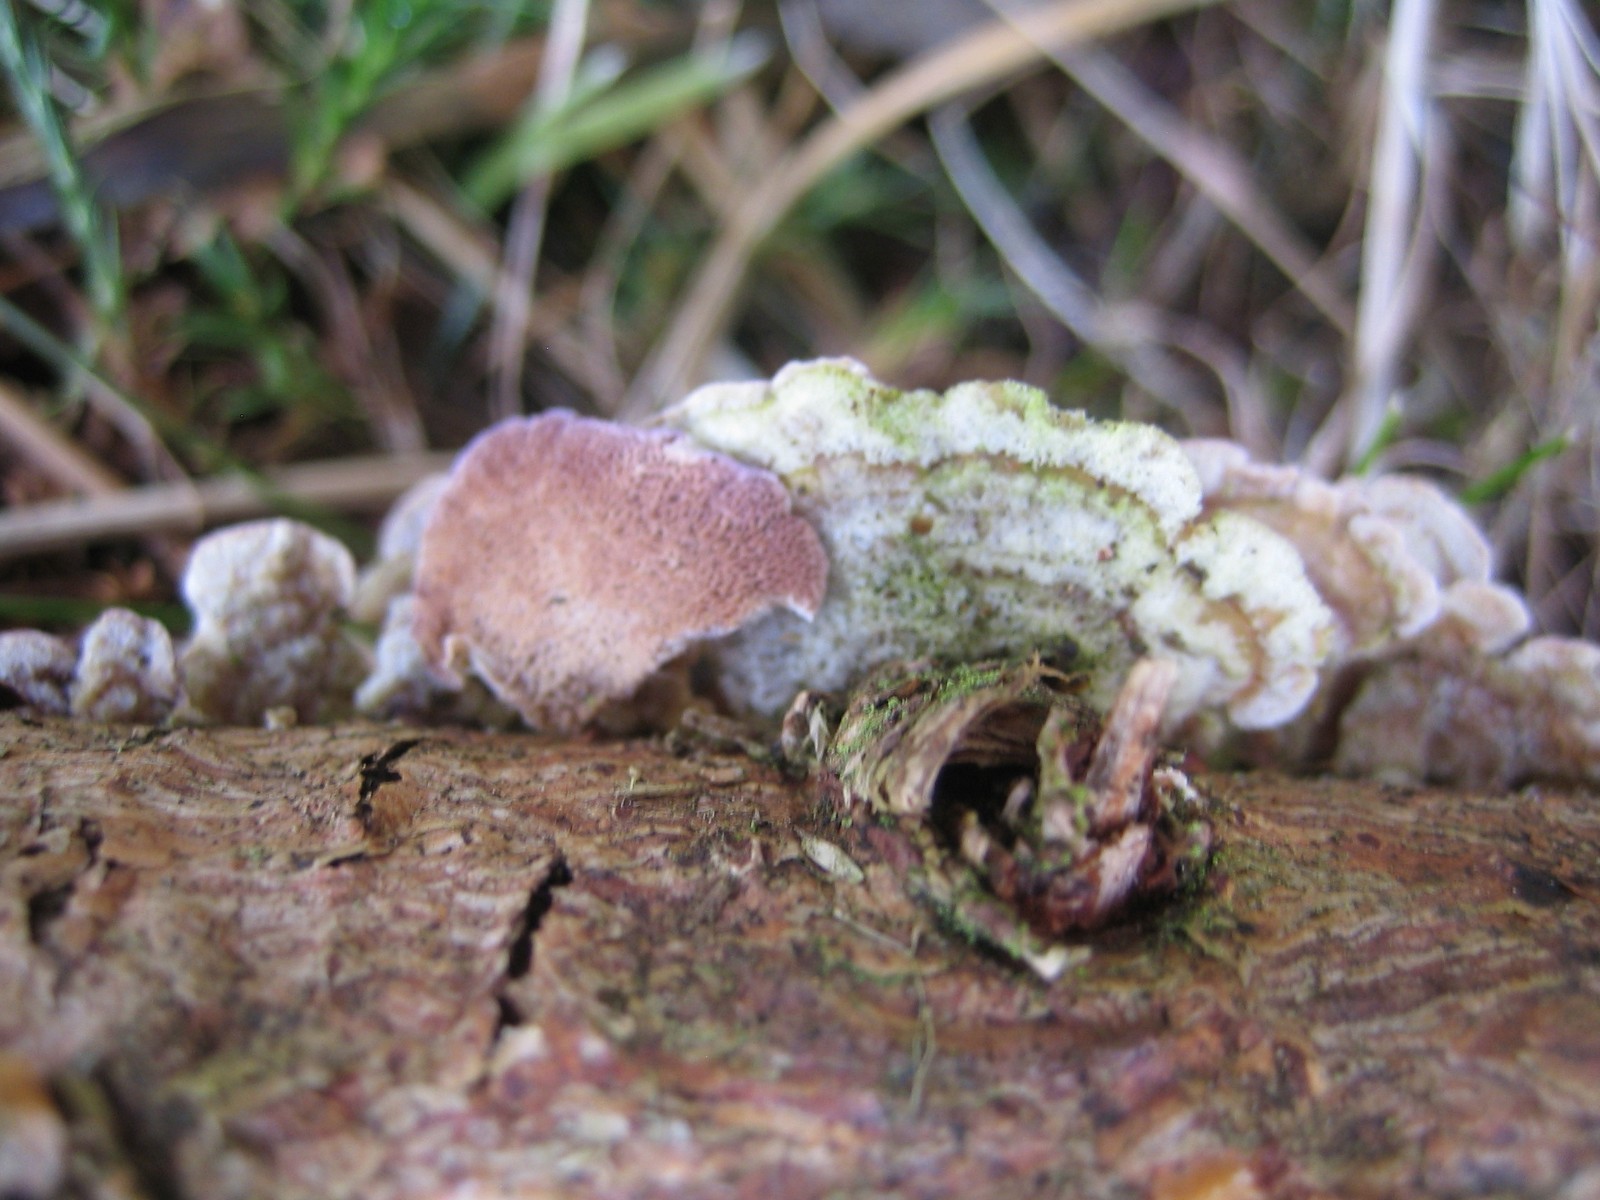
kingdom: Fungi
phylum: Basidiomycota
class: Agaricomycetes
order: Hymenochaetales
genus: Trichaptum
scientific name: Trichaptum abietinum
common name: almindelig violporesvamp
